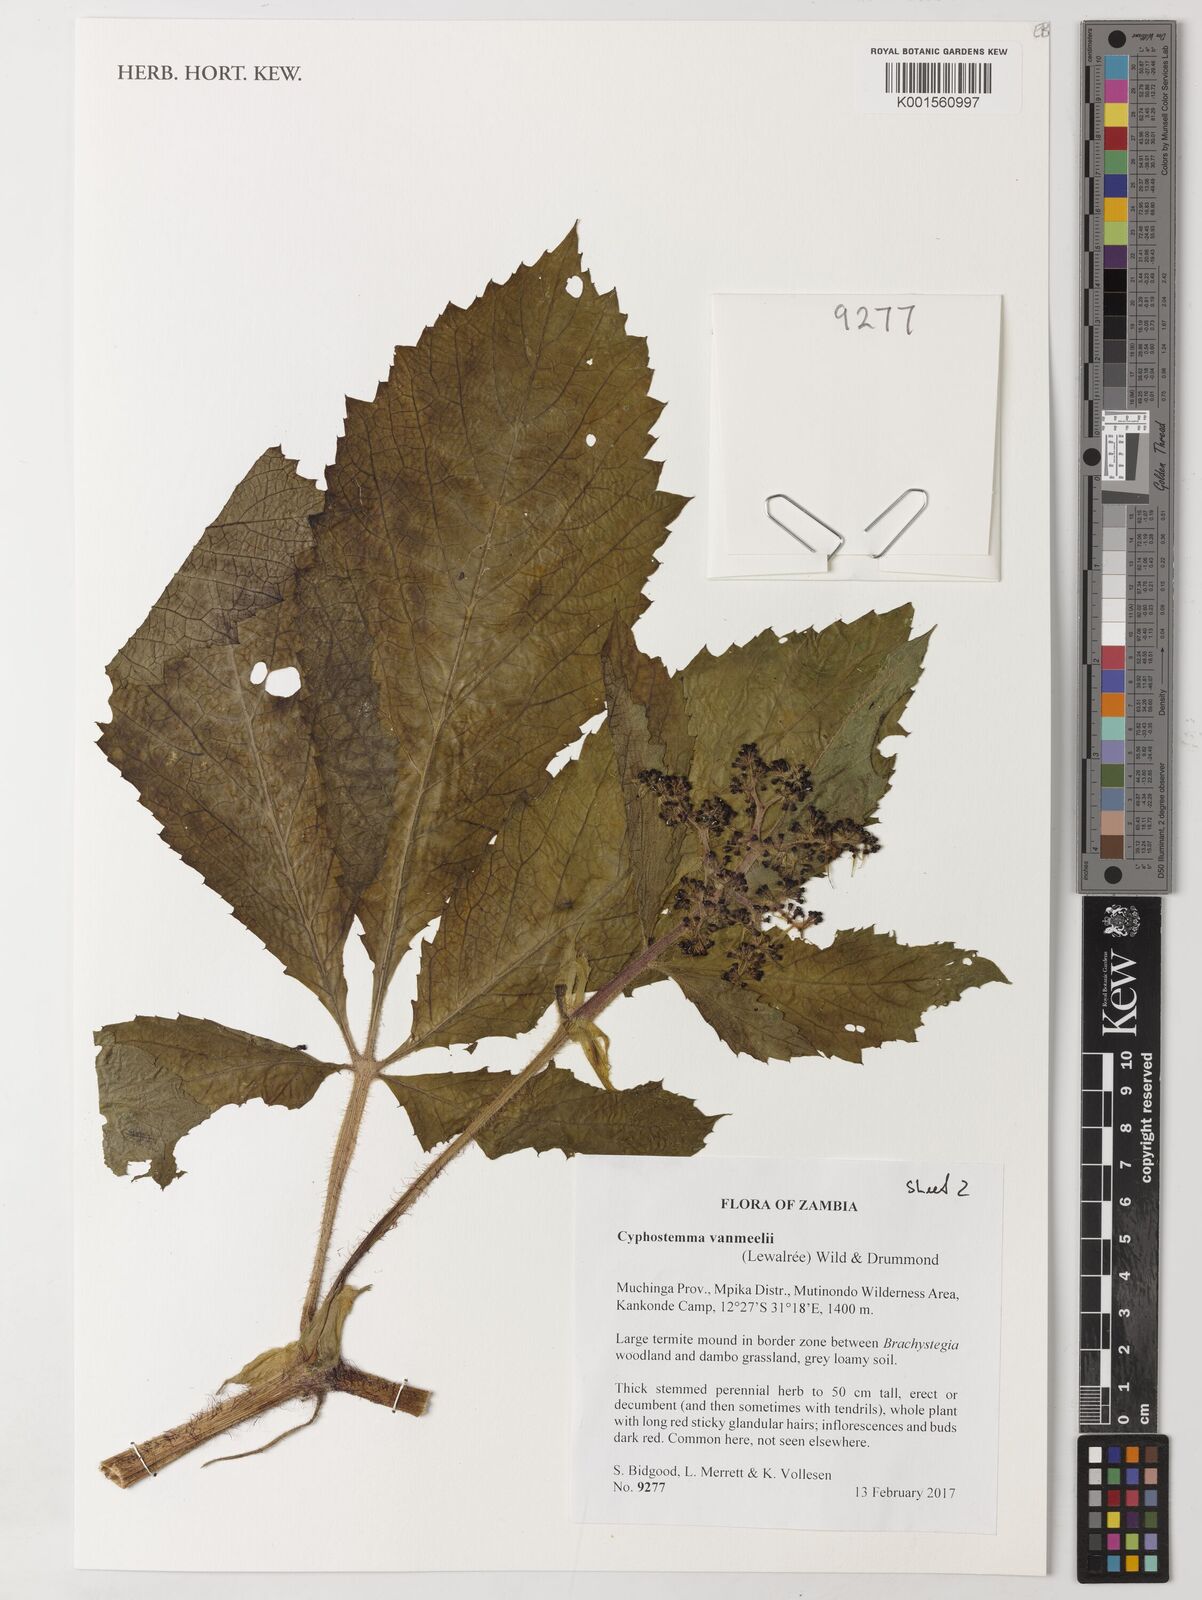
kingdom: Plantae
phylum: Tracheophyta
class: Magnoliopsida
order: Vitales
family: Vitaceae
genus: Cyphostemma
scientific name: Cyphostemma vanmeelii
